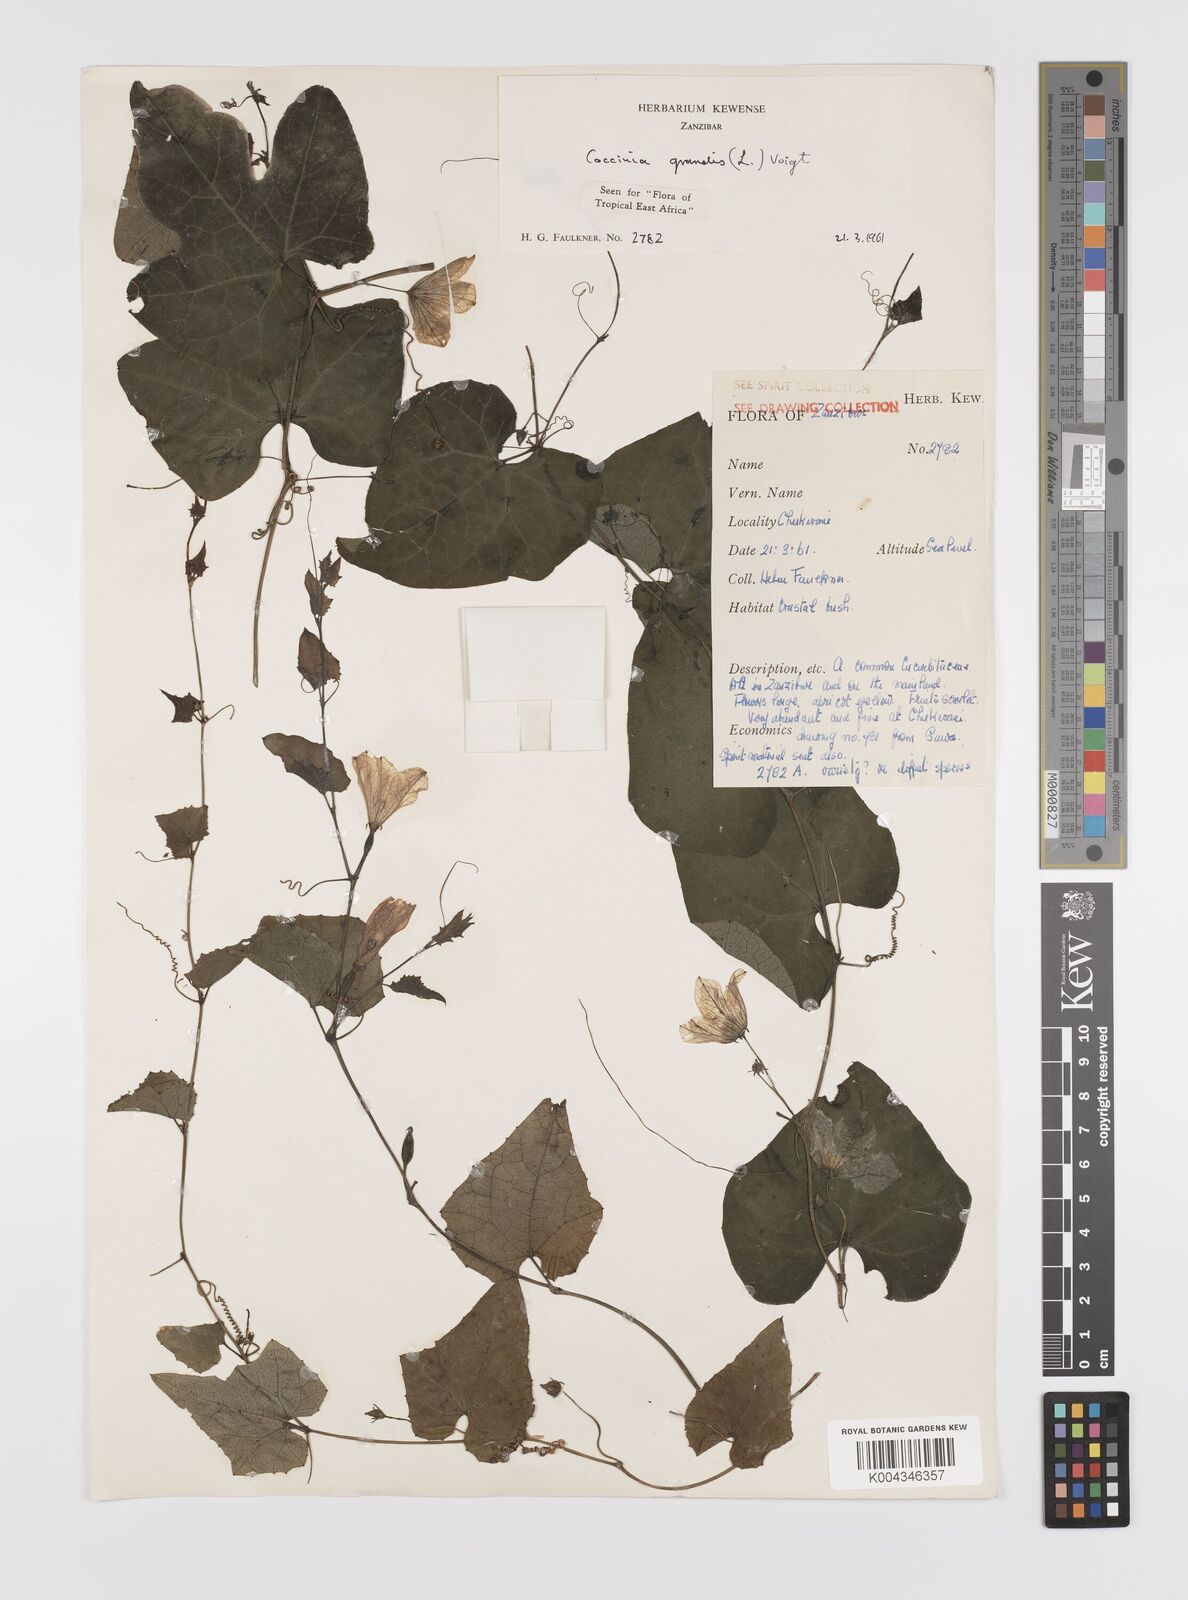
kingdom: Plantae
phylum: Tracheophyta
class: Magnoliopsida
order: Cucurbitales
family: Cucurbitaceae
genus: Coccinia
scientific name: Coccinia grandis
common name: Ivy gourd
